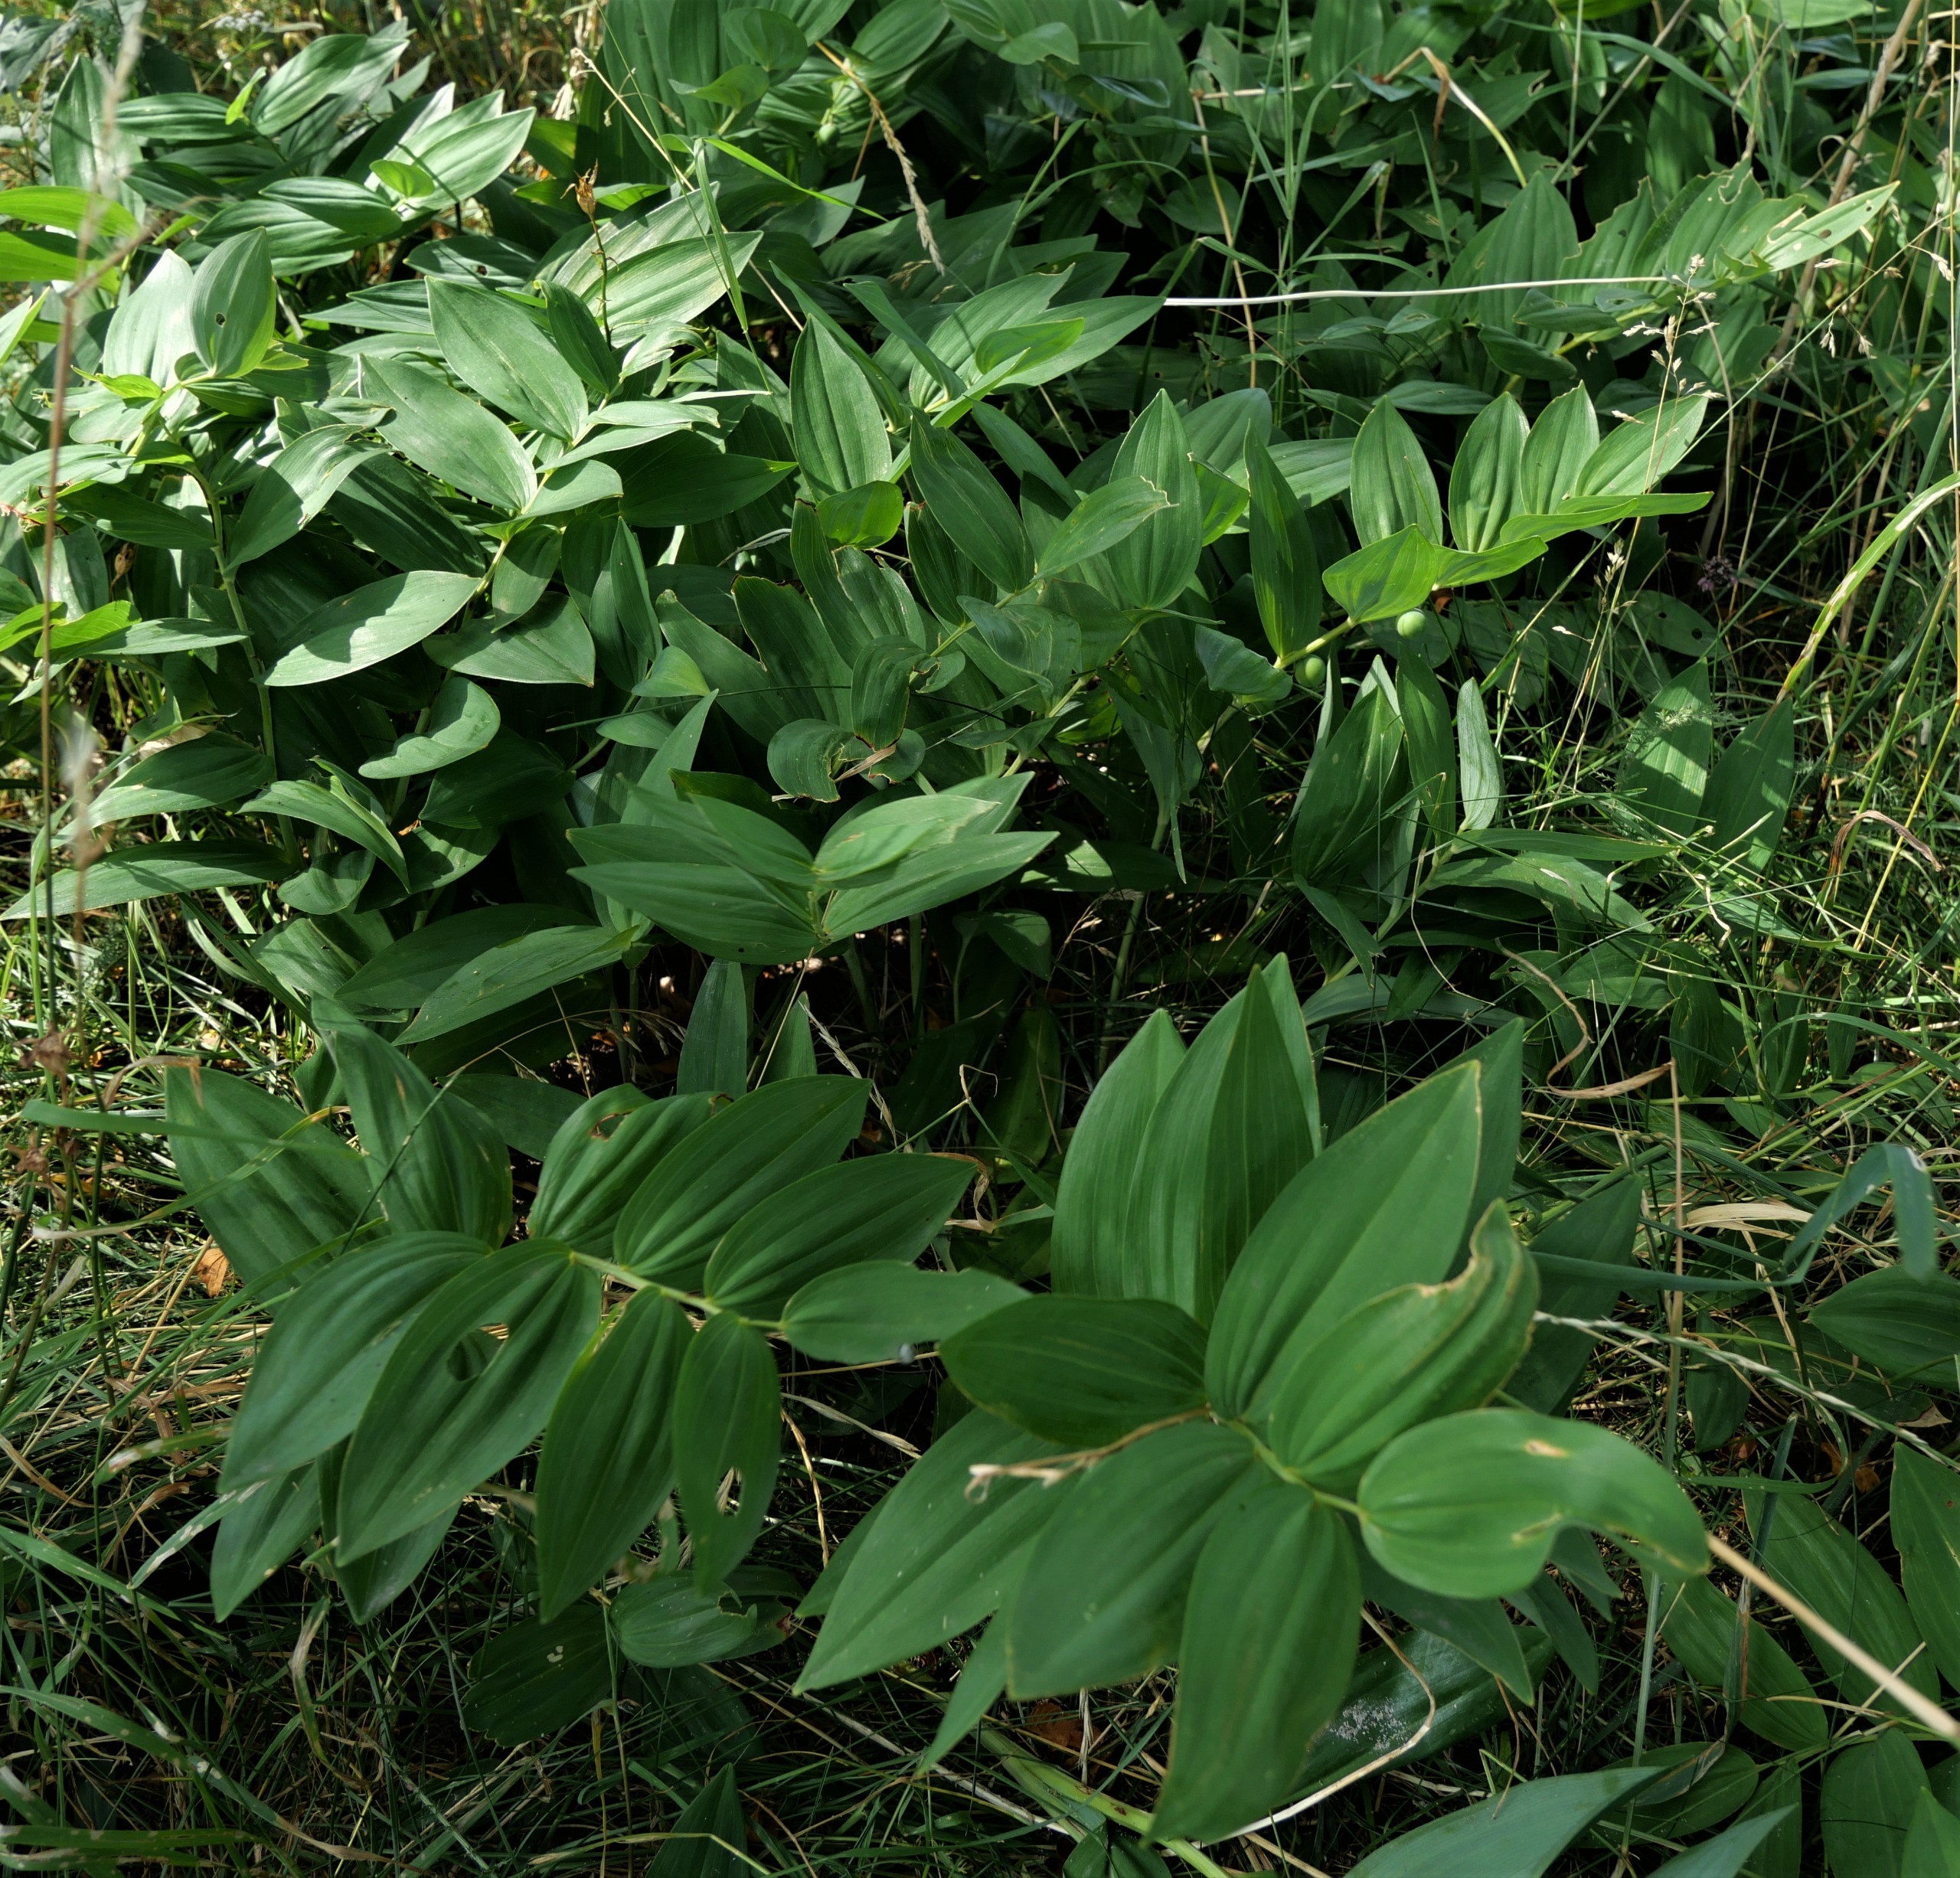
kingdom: Plantae
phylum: Tracheophyta
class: Liliopsida
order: Asparagales
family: Asparagaceae
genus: Polygonatum
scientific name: Polygonatum odoratum
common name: Kantet konval
